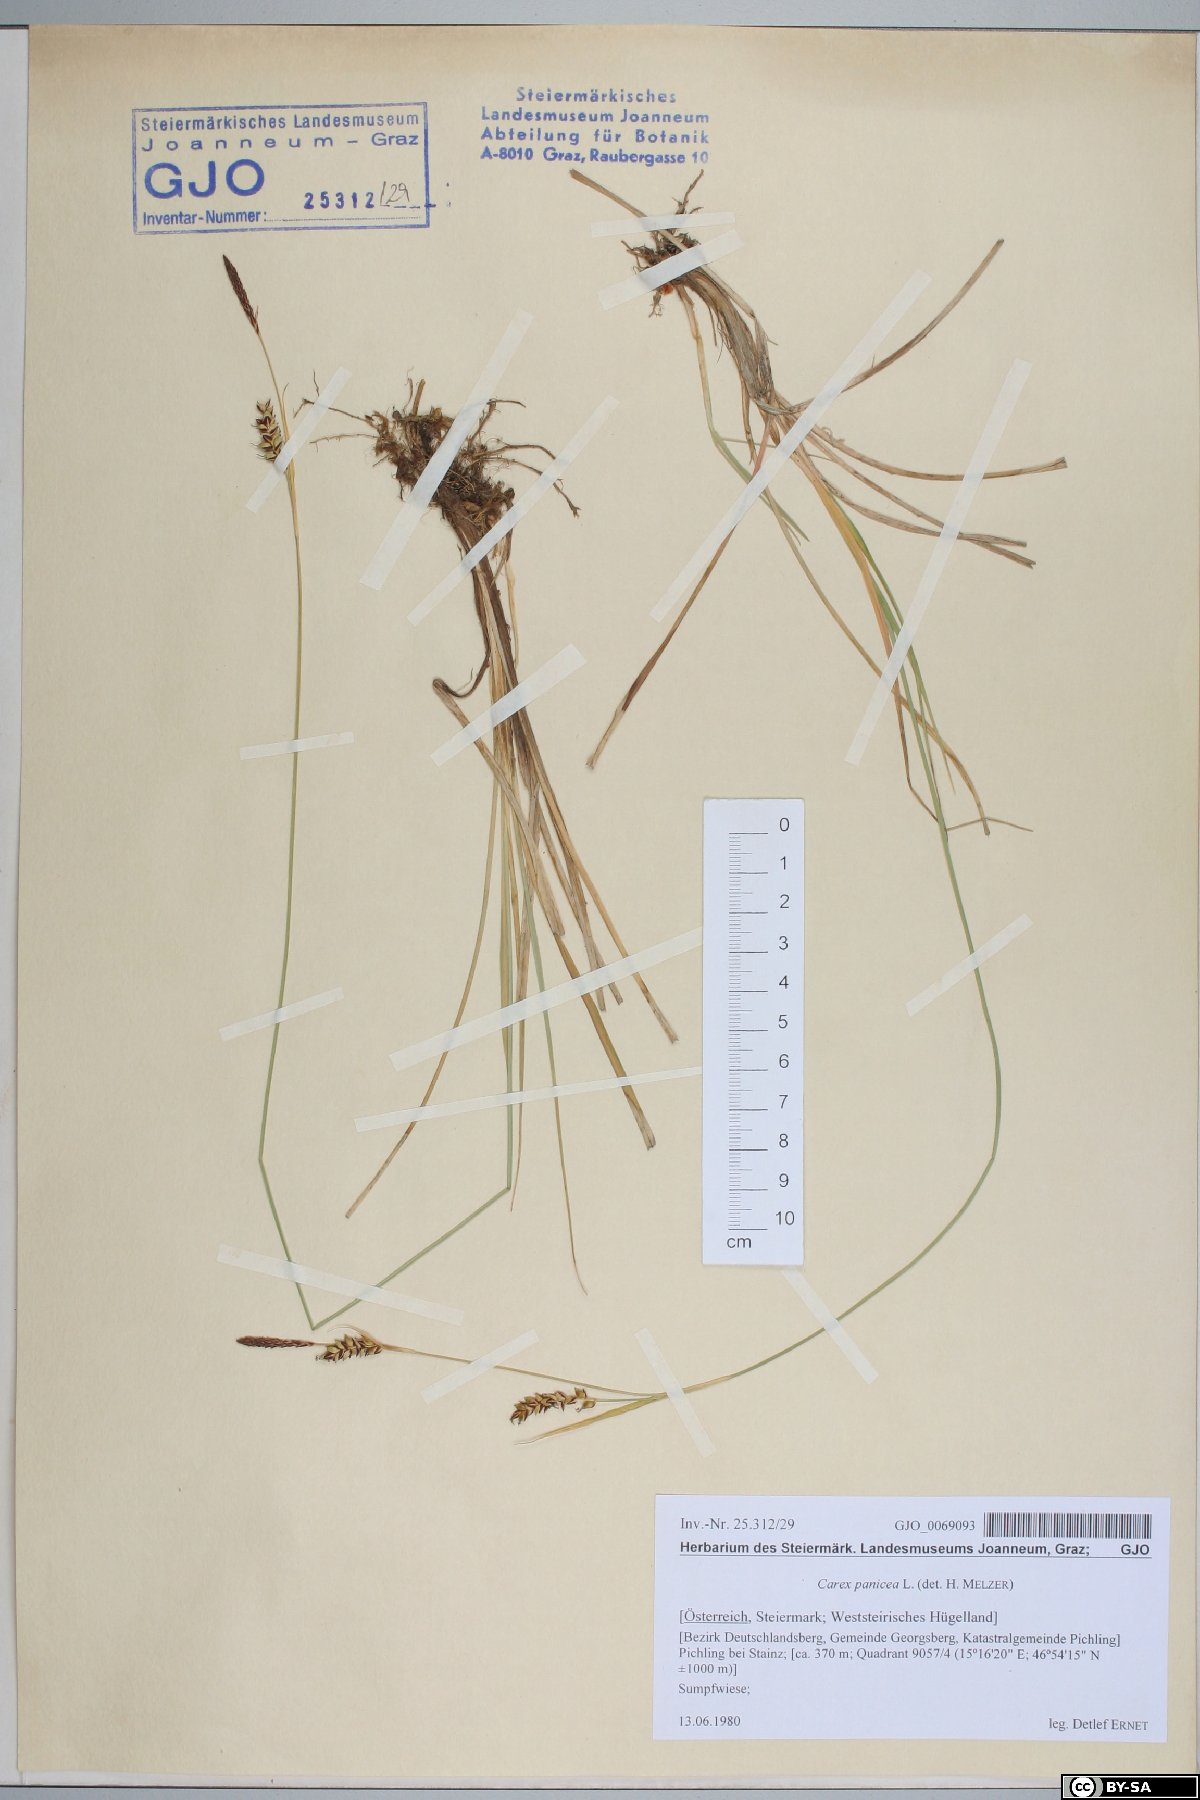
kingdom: Plantae
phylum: Tracheophyta
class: Liliopsida
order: Poales
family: Cyperaceae
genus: Carex
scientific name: Carex panicea
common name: Carnation sedge
